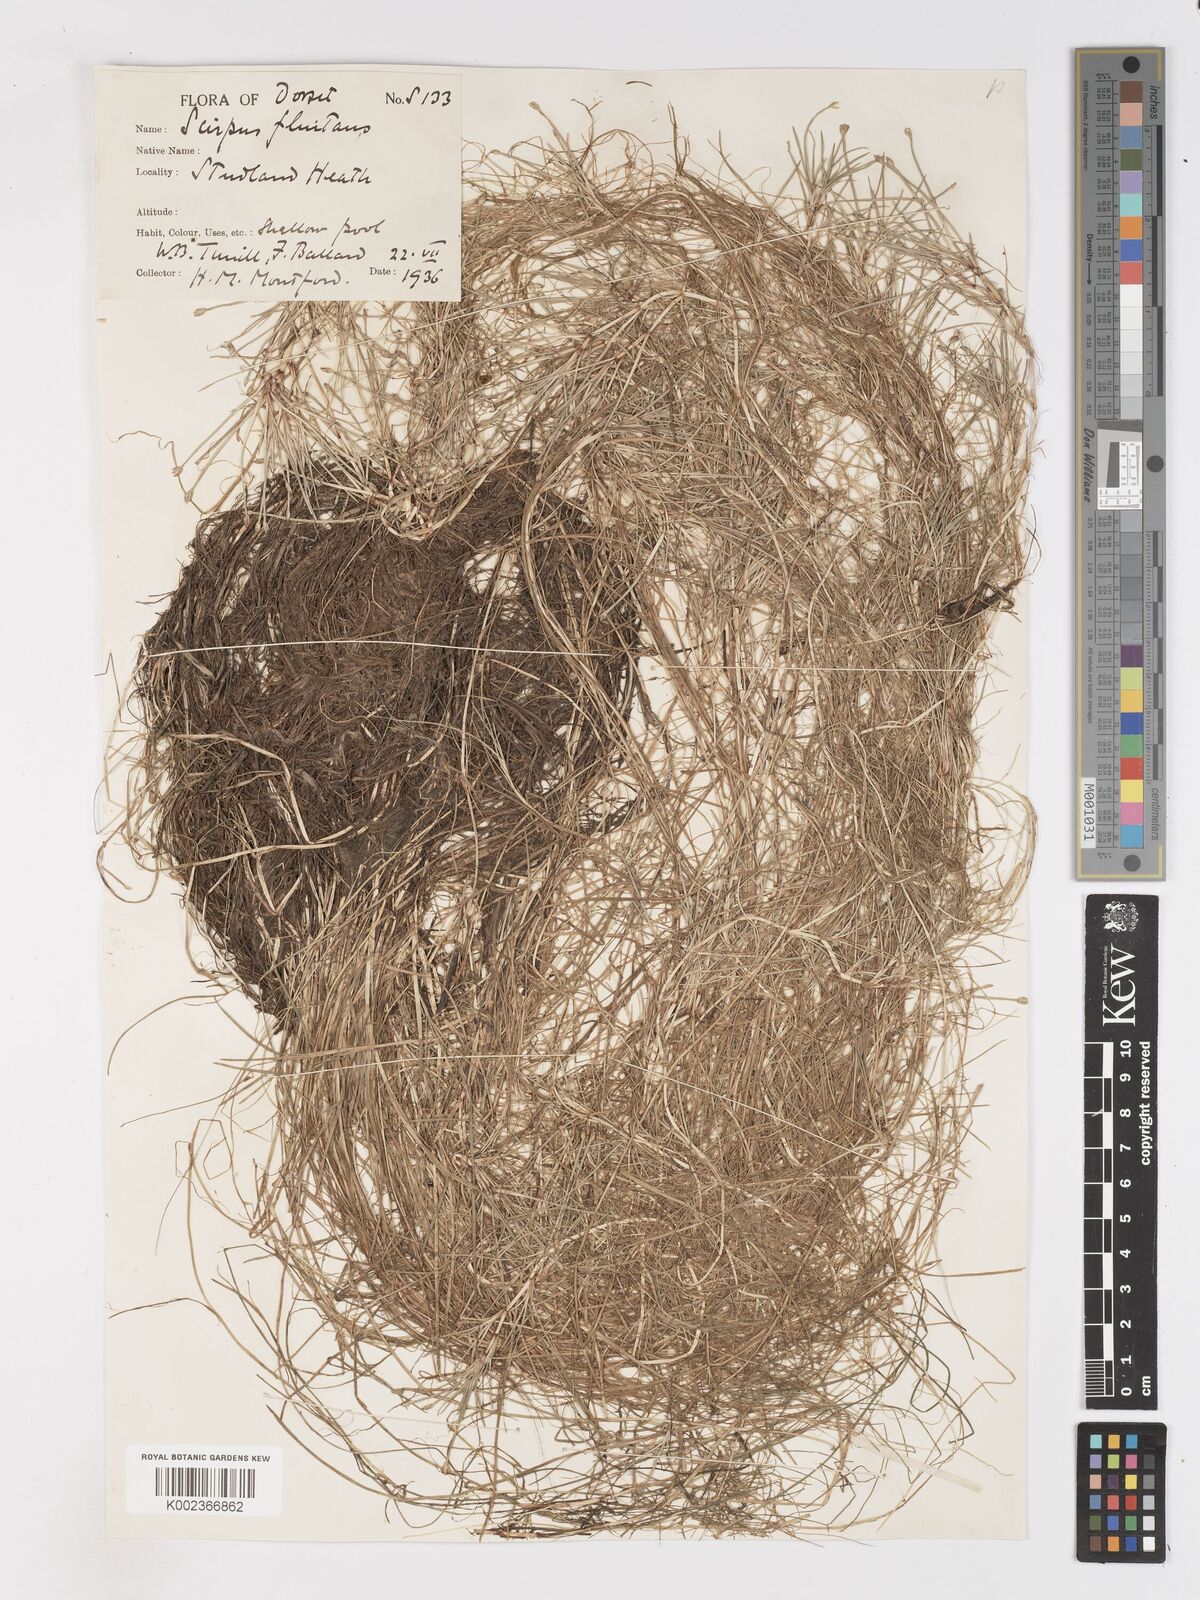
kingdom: Plantae
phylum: Tracheophyta
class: Liliopsida
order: Poales
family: Cyperaceae
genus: Isolepis
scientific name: Isolepis fluitans
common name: Floating club-rush
